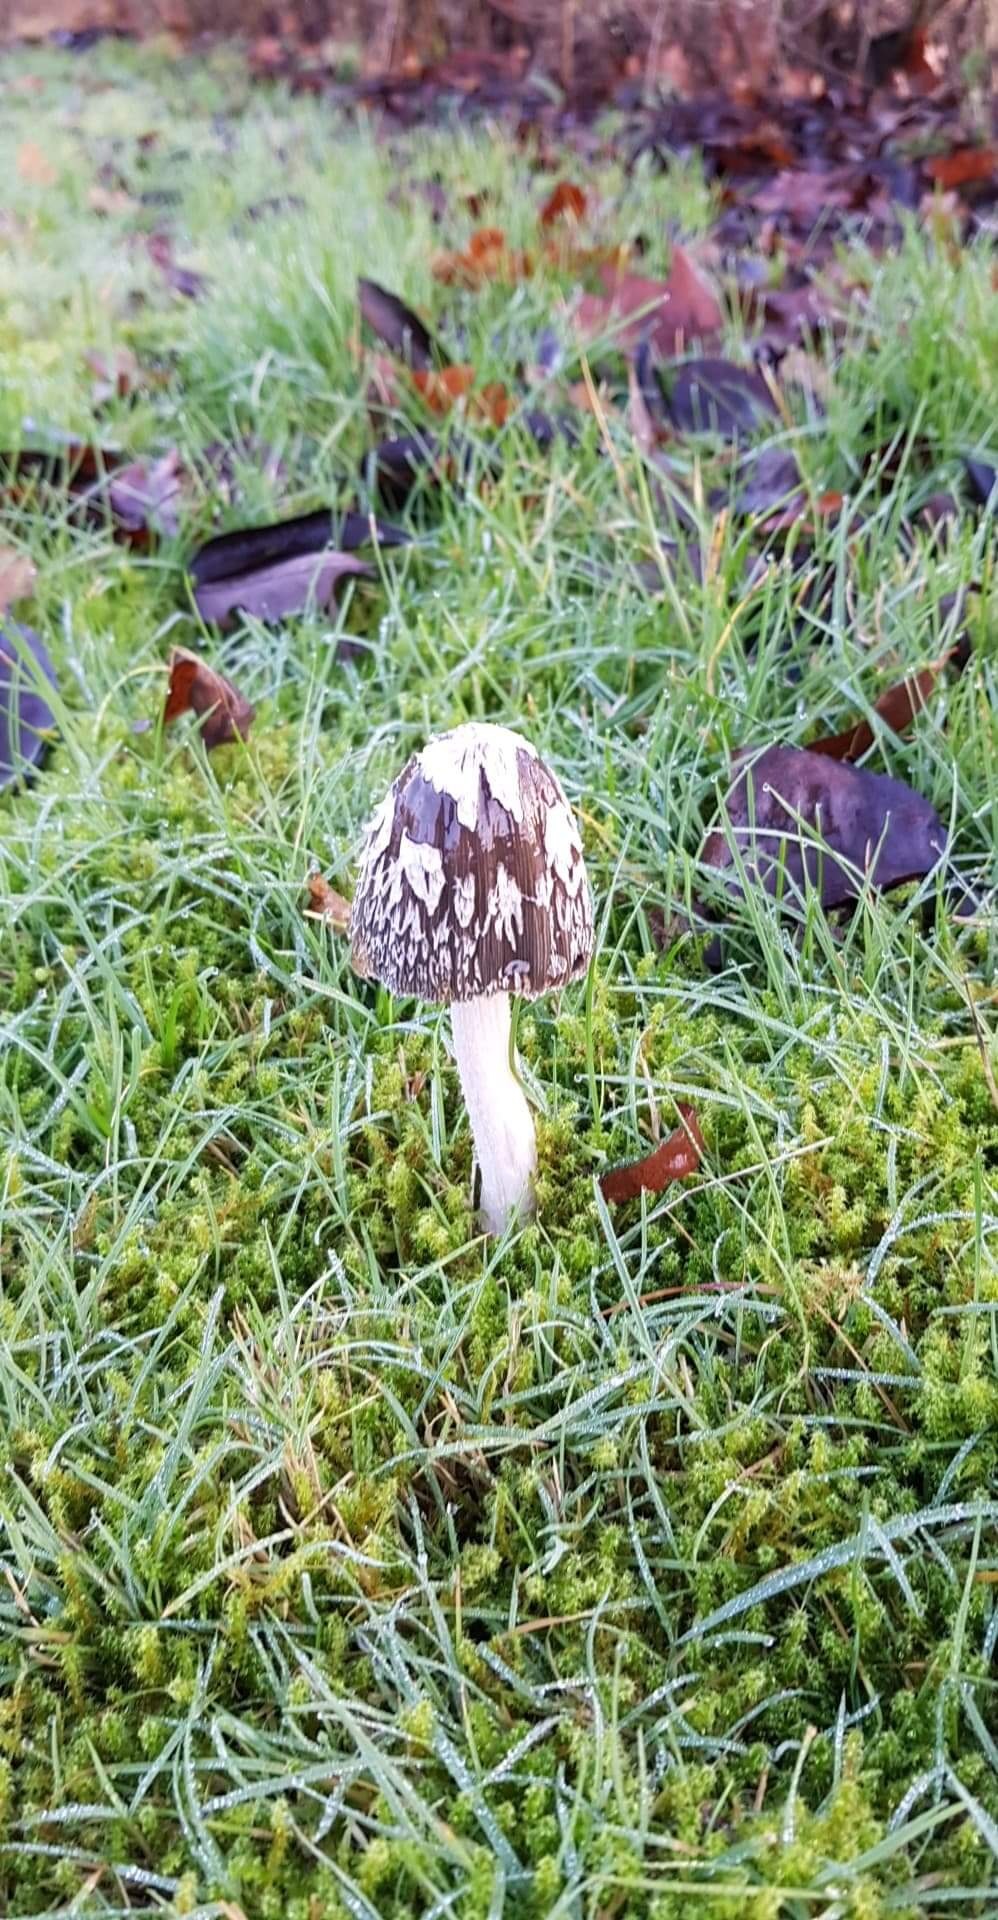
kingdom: Fungi
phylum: Basidiomycota
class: Agaricomycetes
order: Agaricales
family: Psathyrellaceae
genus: Coprinopsis
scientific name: Coprinopsis picacea
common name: skade-blækhat
